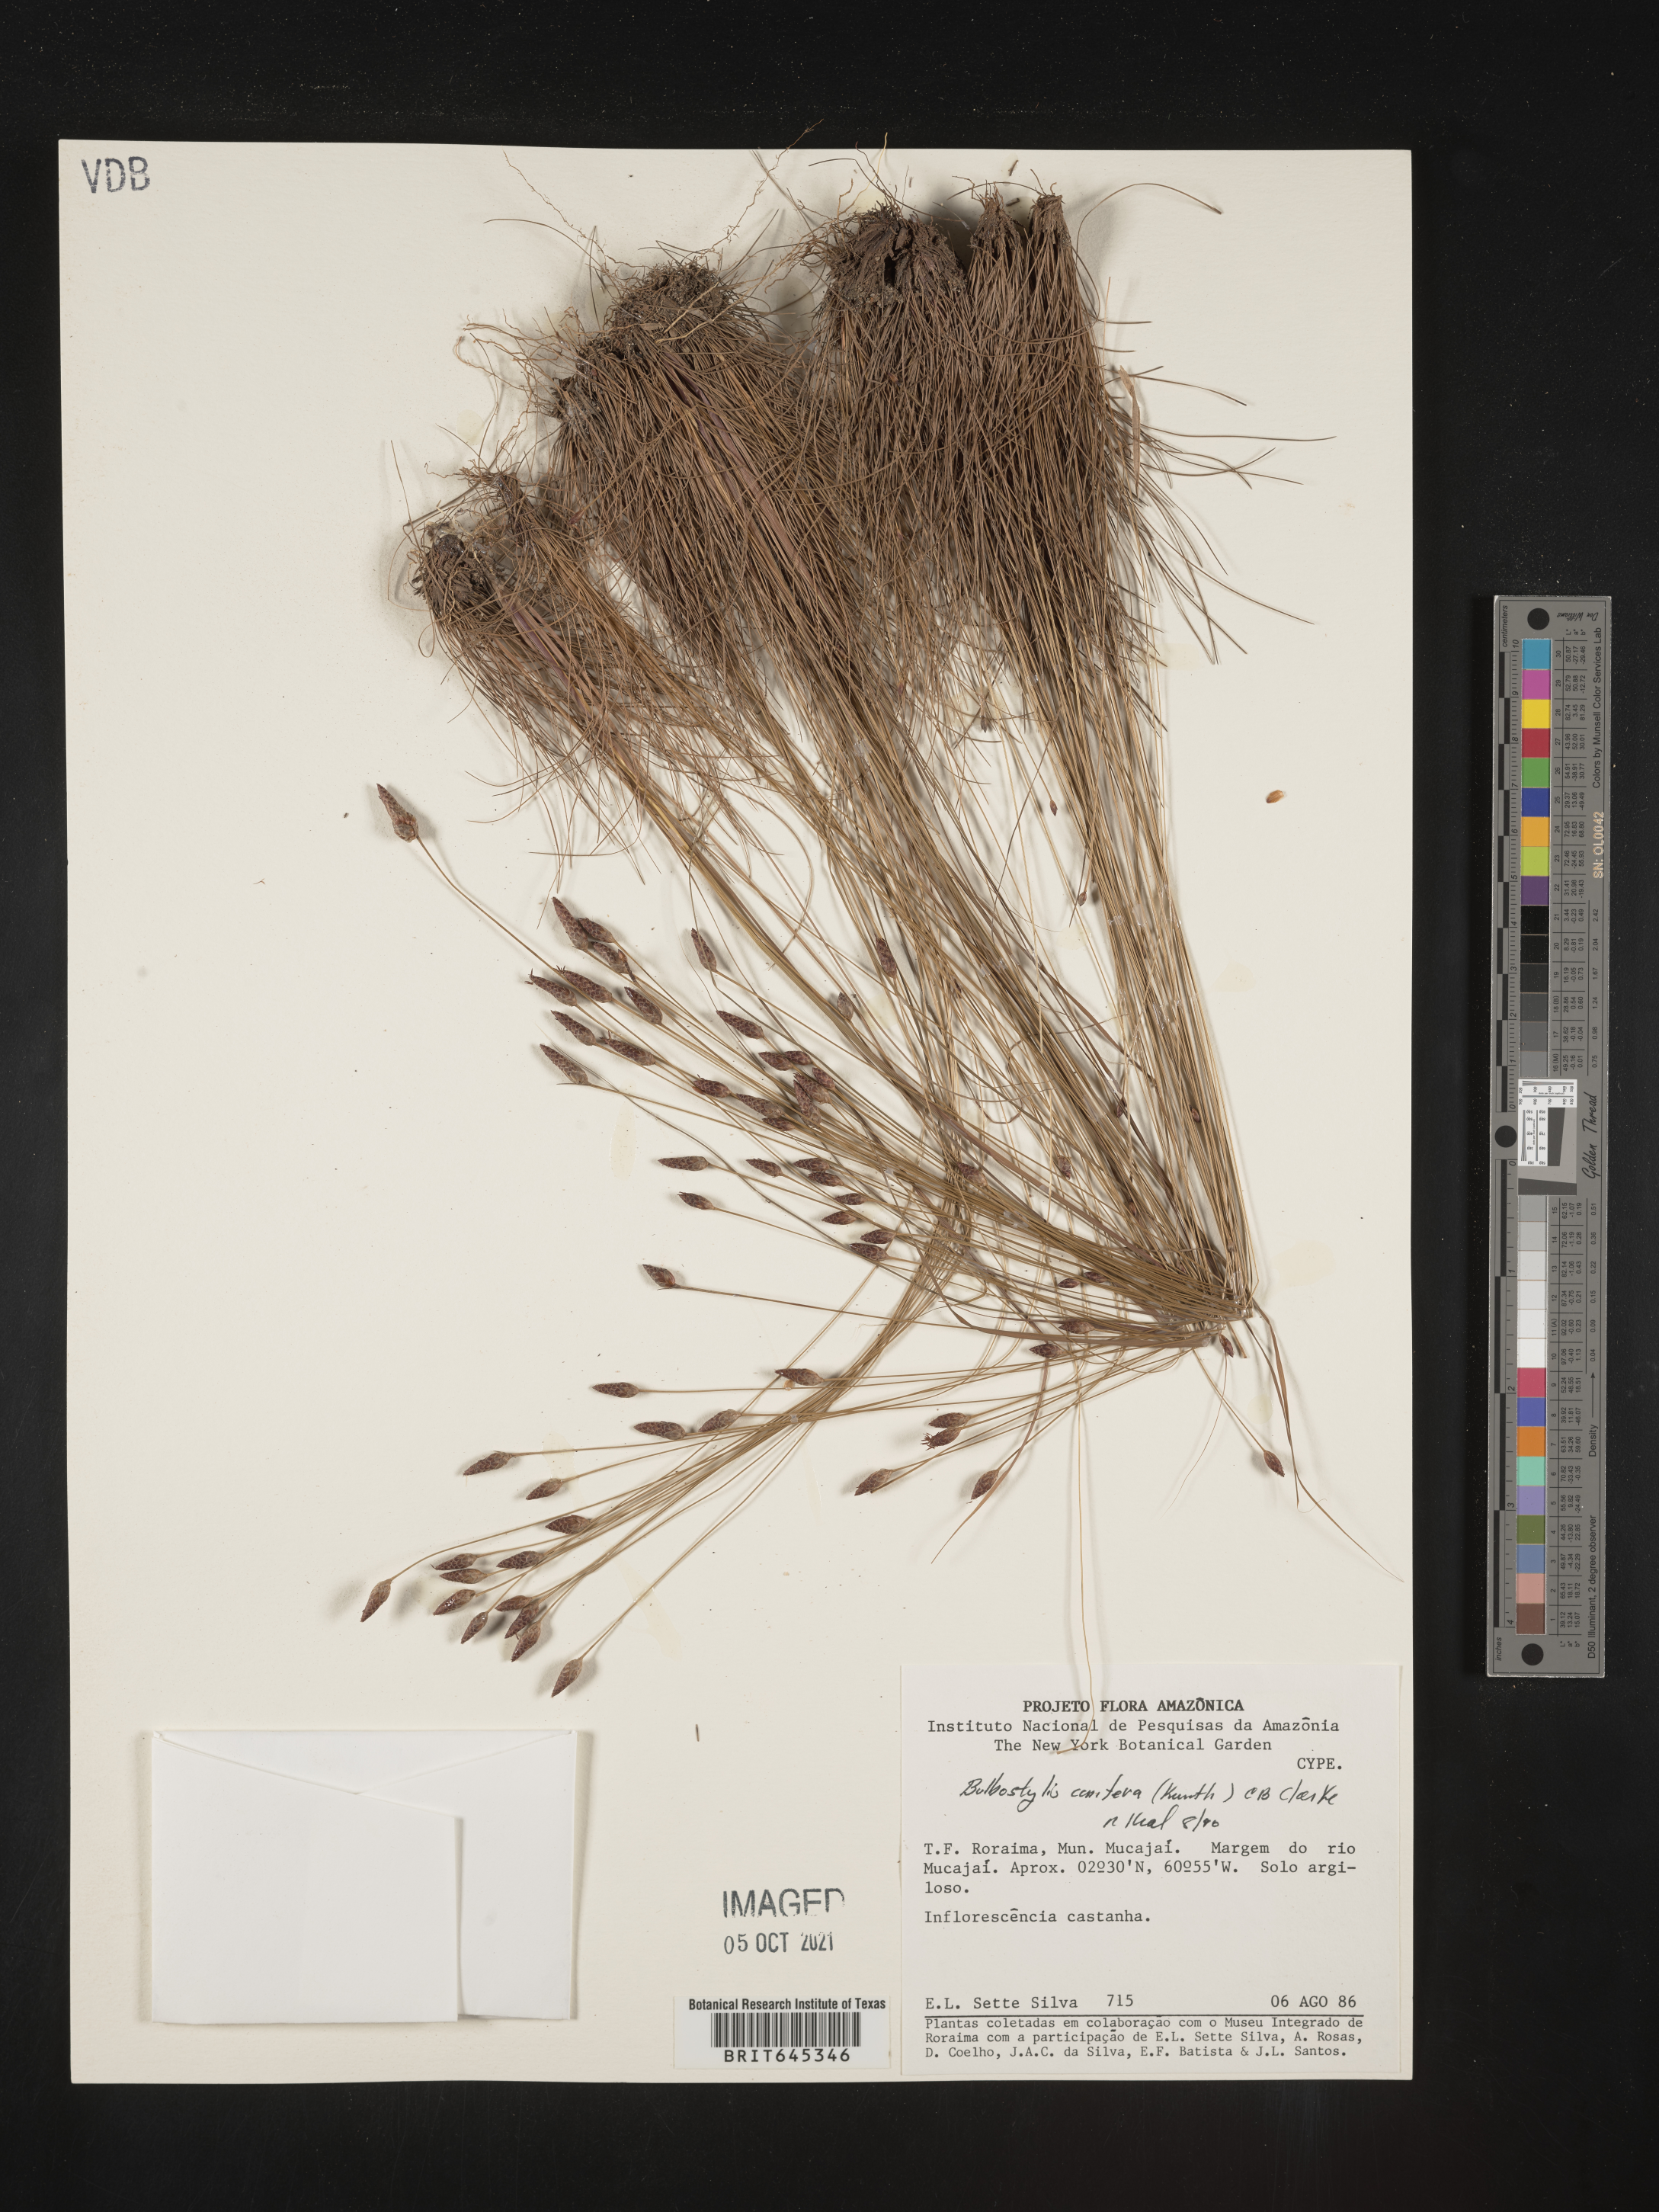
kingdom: Plantae
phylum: Tracheophyta
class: Liliopsida
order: Poales
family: Cyperaceae
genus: Bulbostylis
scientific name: Bulbostylis conifera
